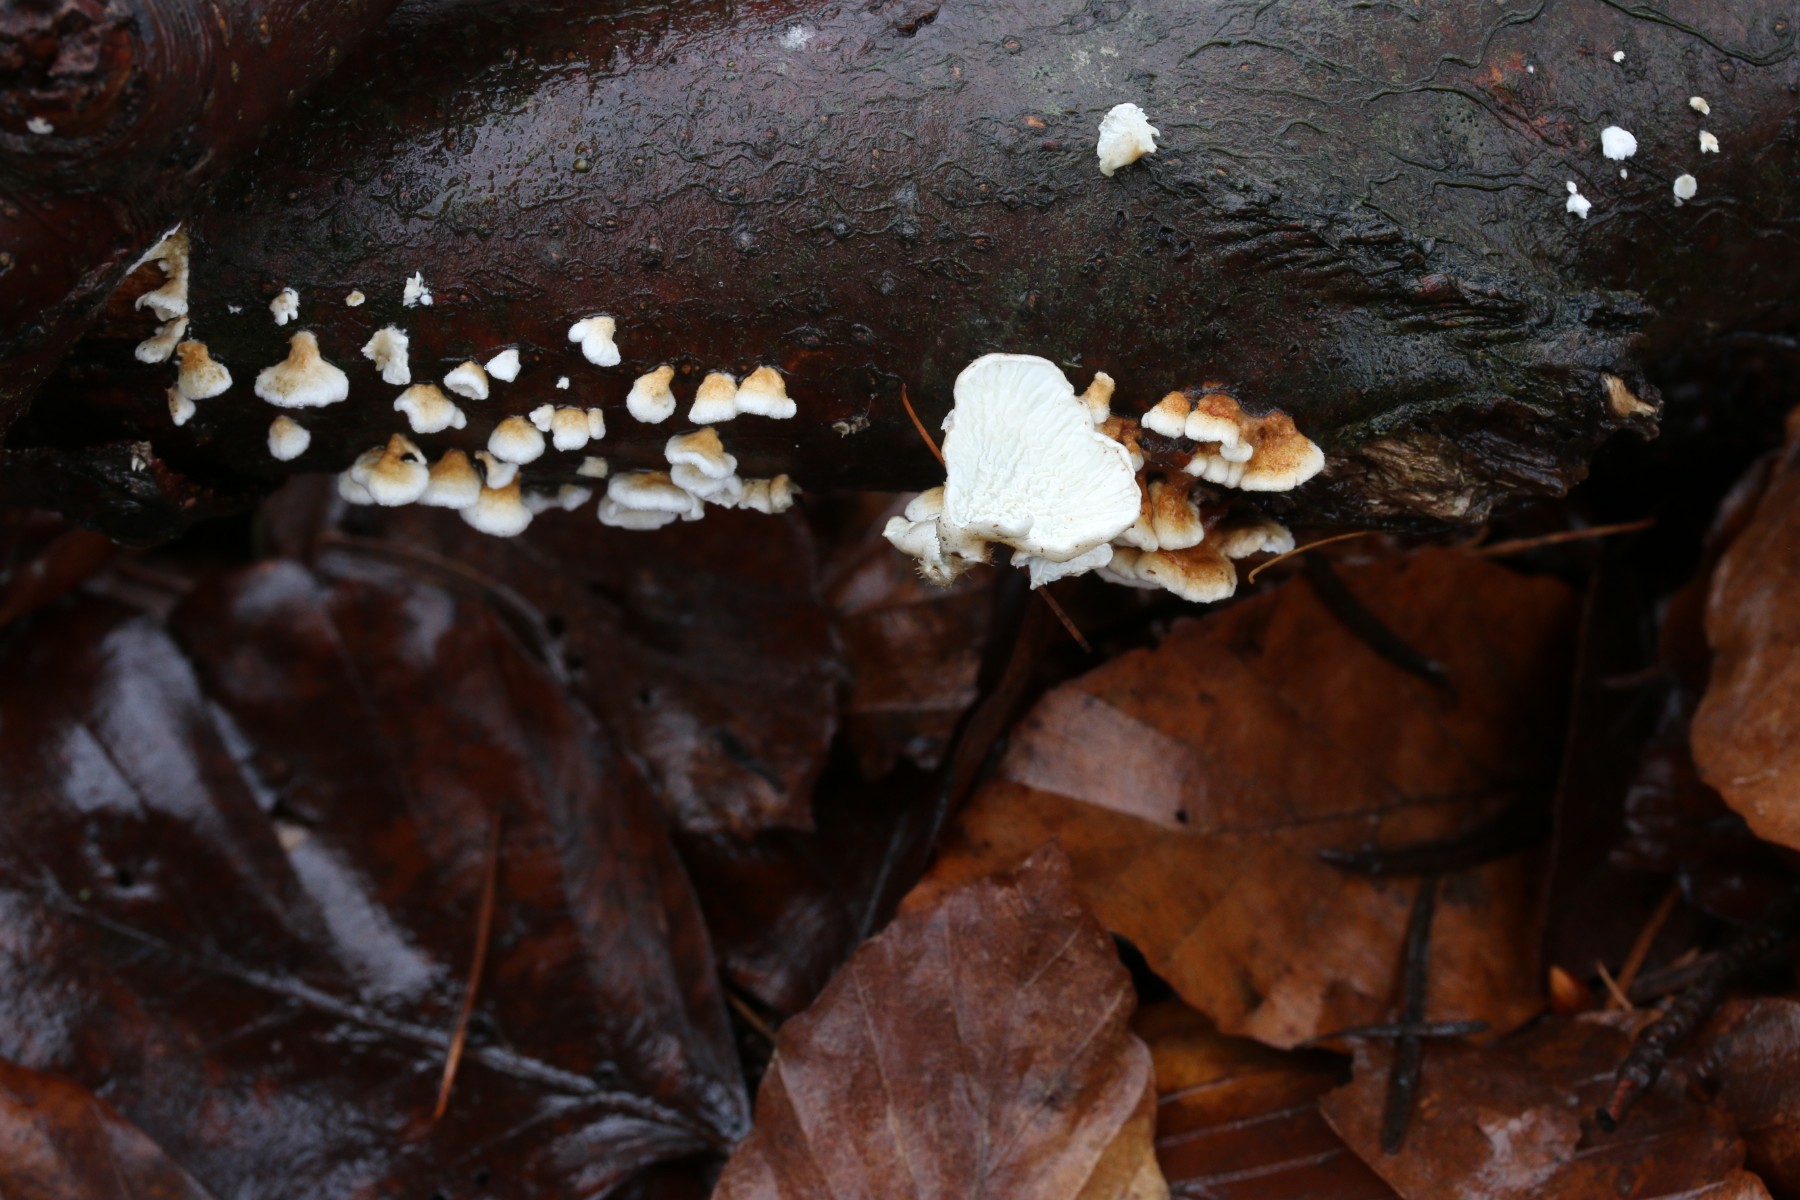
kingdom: Fungi
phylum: Basidiomycota
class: Agaricomycetes
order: Amylocorticiales
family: Amylocorticiaceae
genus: Plicaturopsis
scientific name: Plicaturopsis crispa
